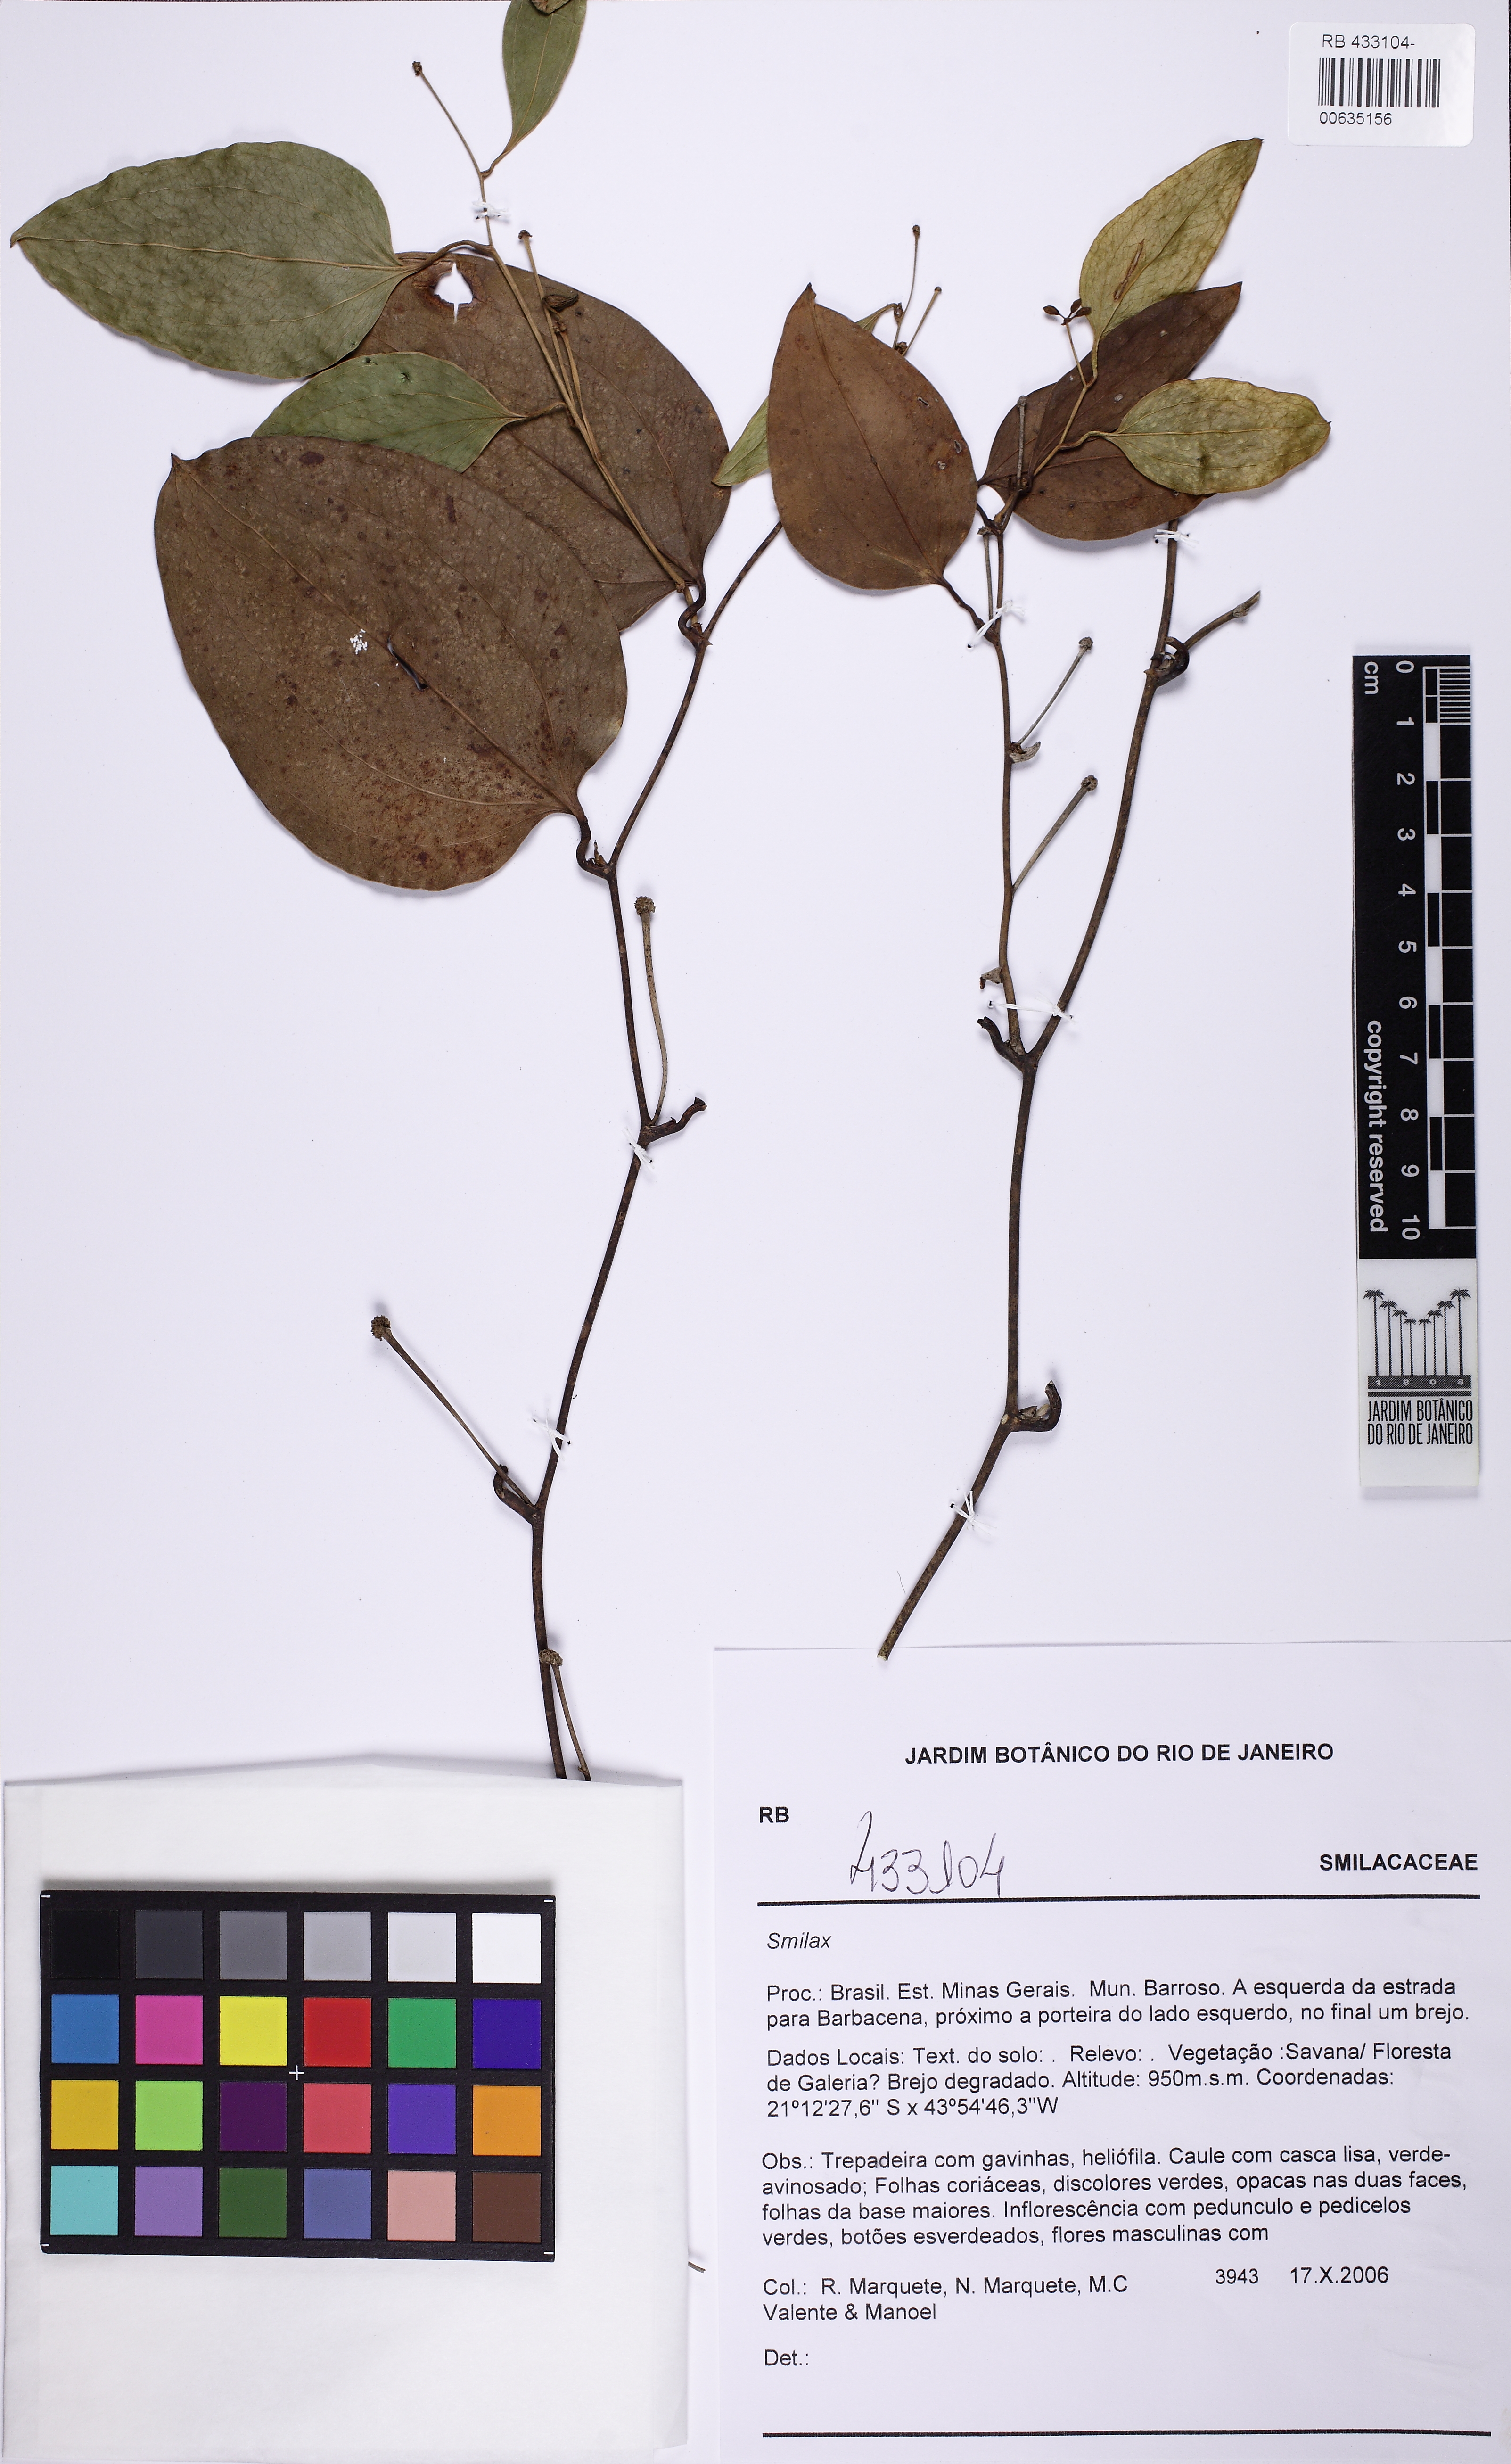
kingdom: Plantae
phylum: Tracheophyta
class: Liliopsida
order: Liliales
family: Smilacaceae
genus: Smilax
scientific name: Smilax
